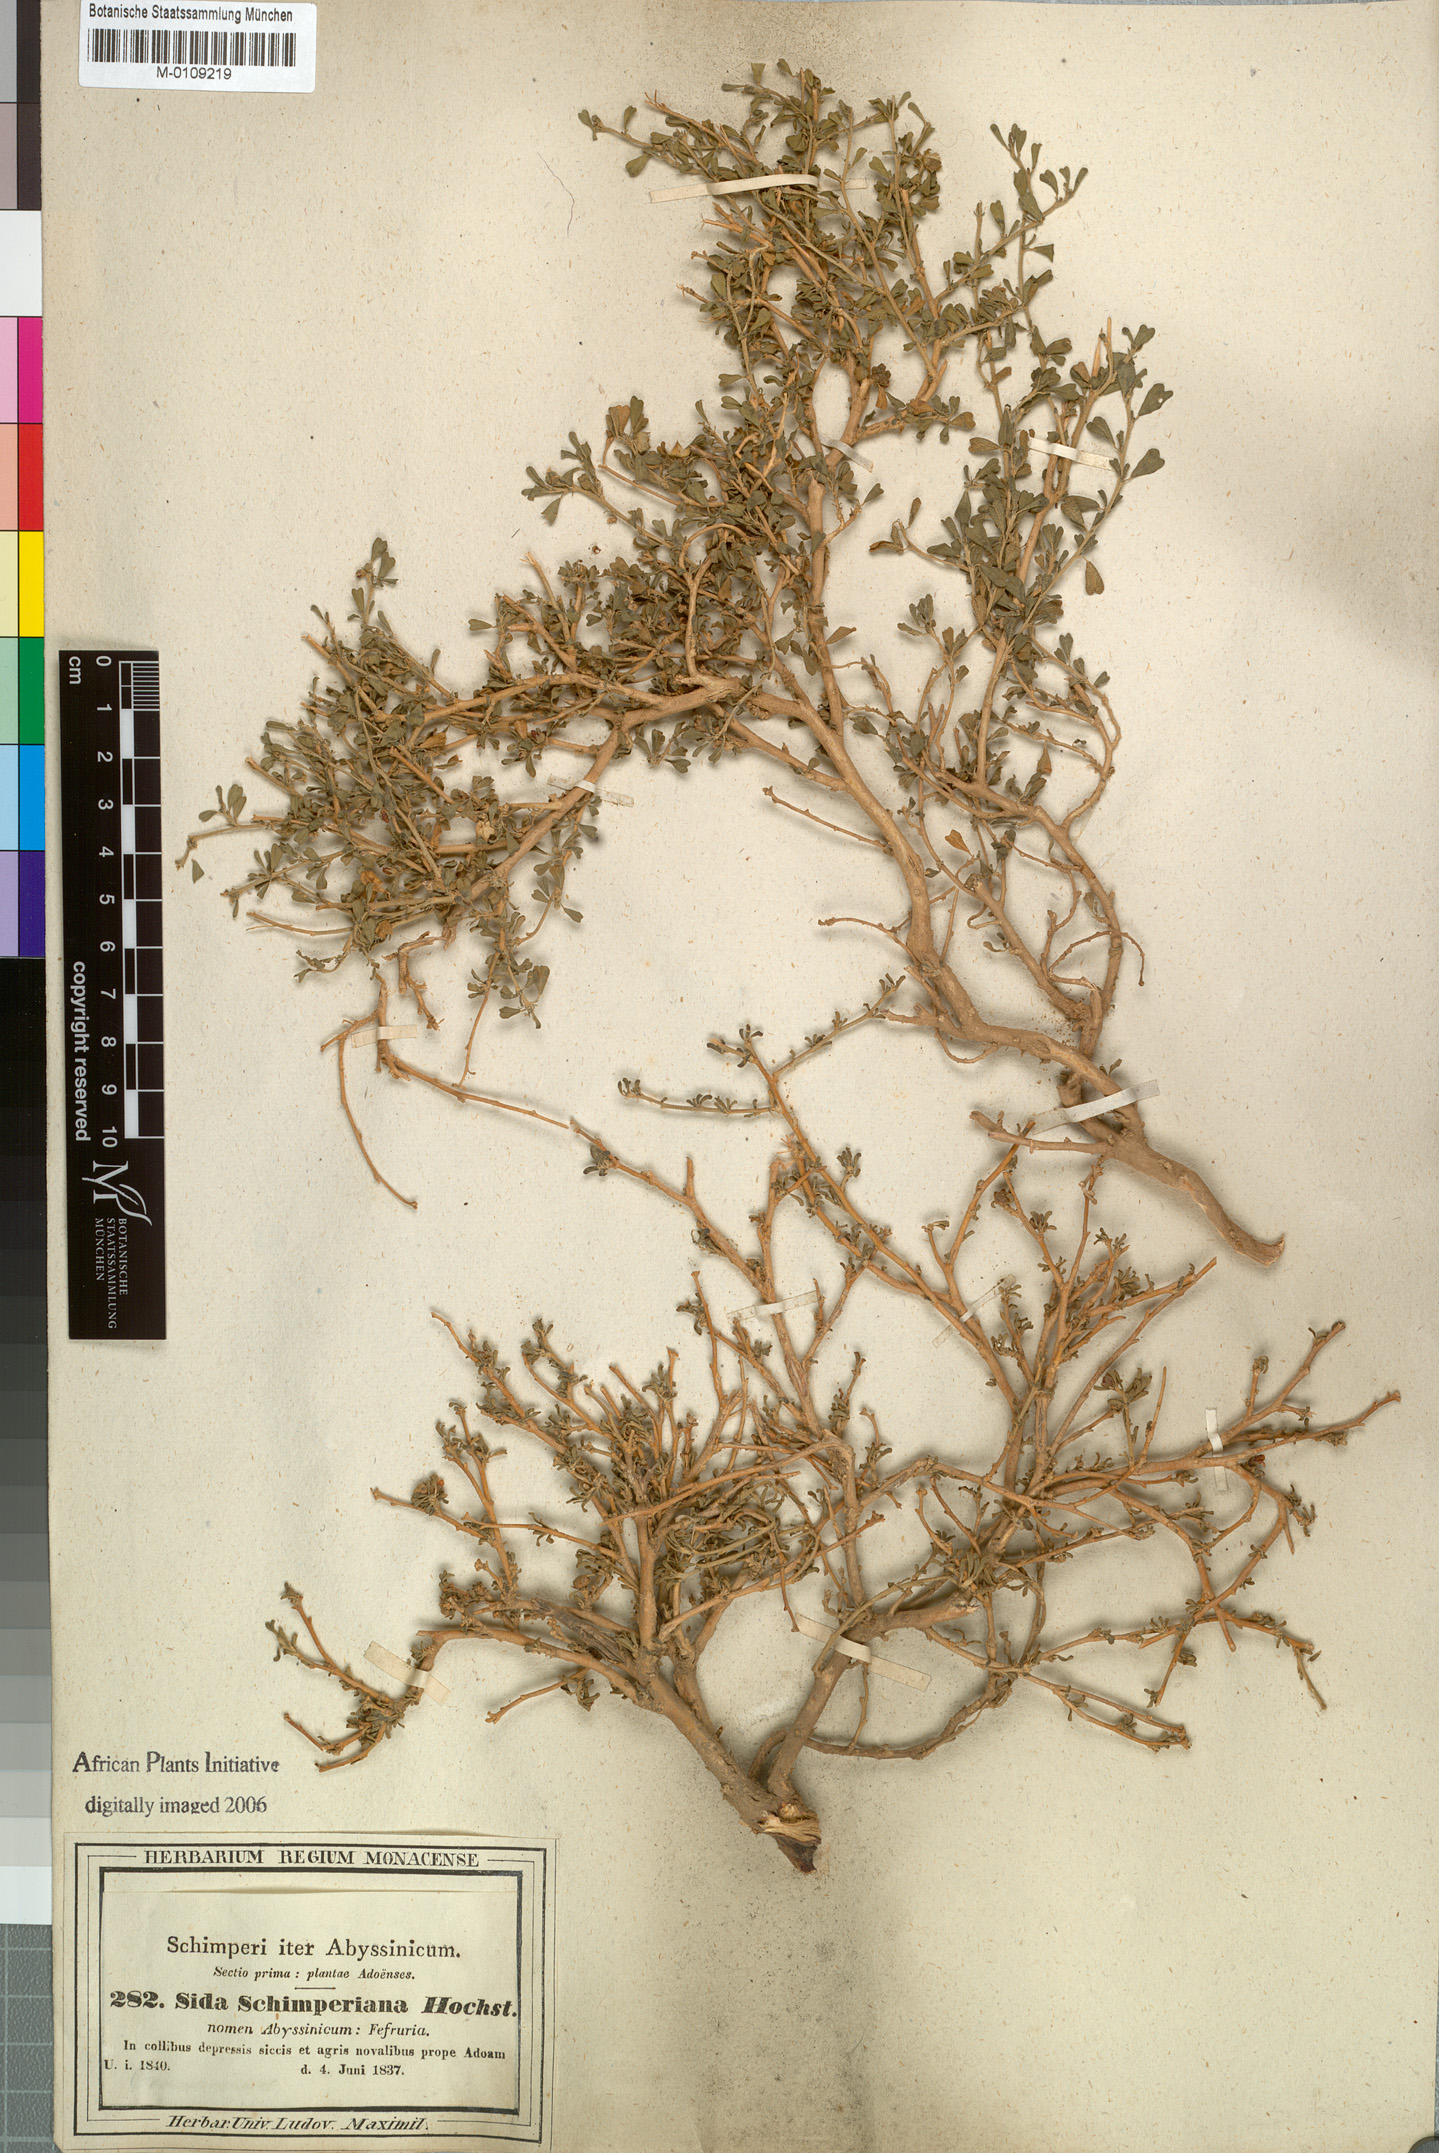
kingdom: Plantae
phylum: Tracheophyta
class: Magnoliopsida
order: Malvales
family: Malvaceae
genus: Sida
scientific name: Sida schimperiana
